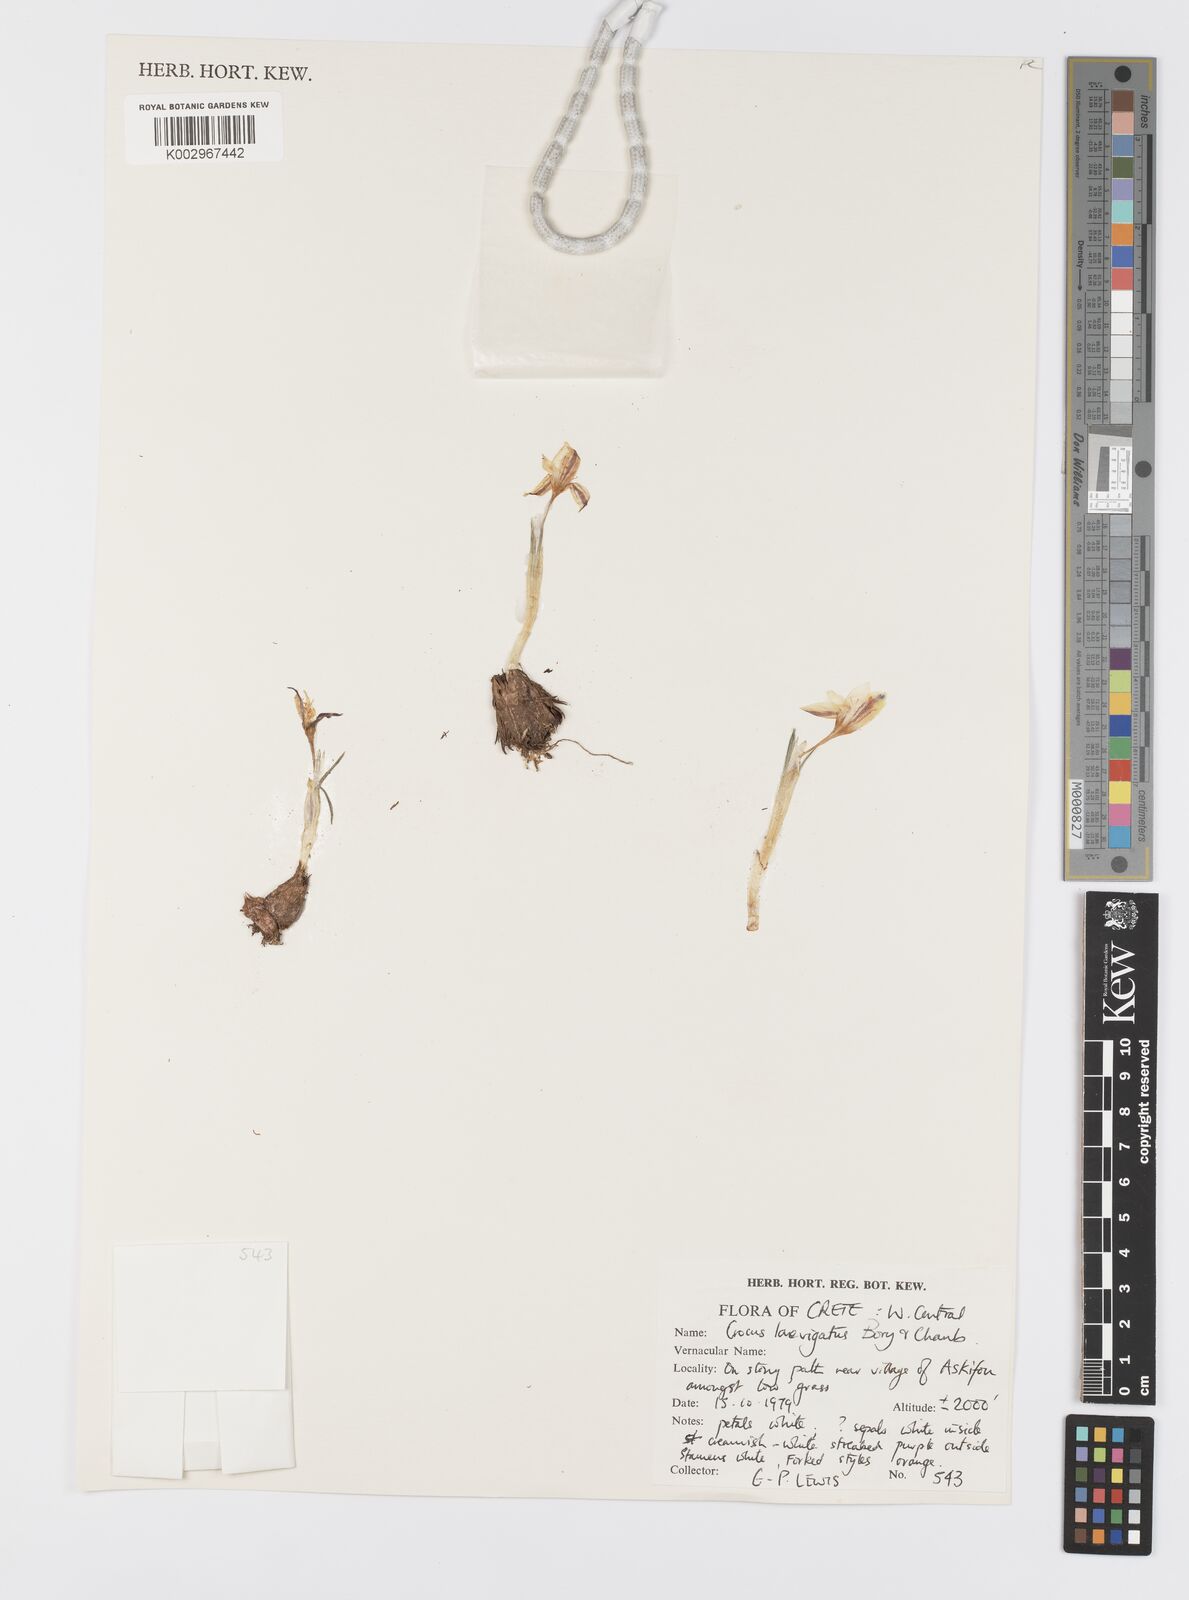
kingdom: Plantae
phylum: Tracheophyta
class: Liliopsida
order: Asparagales
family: Iridaceae
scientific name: Iridaceae
